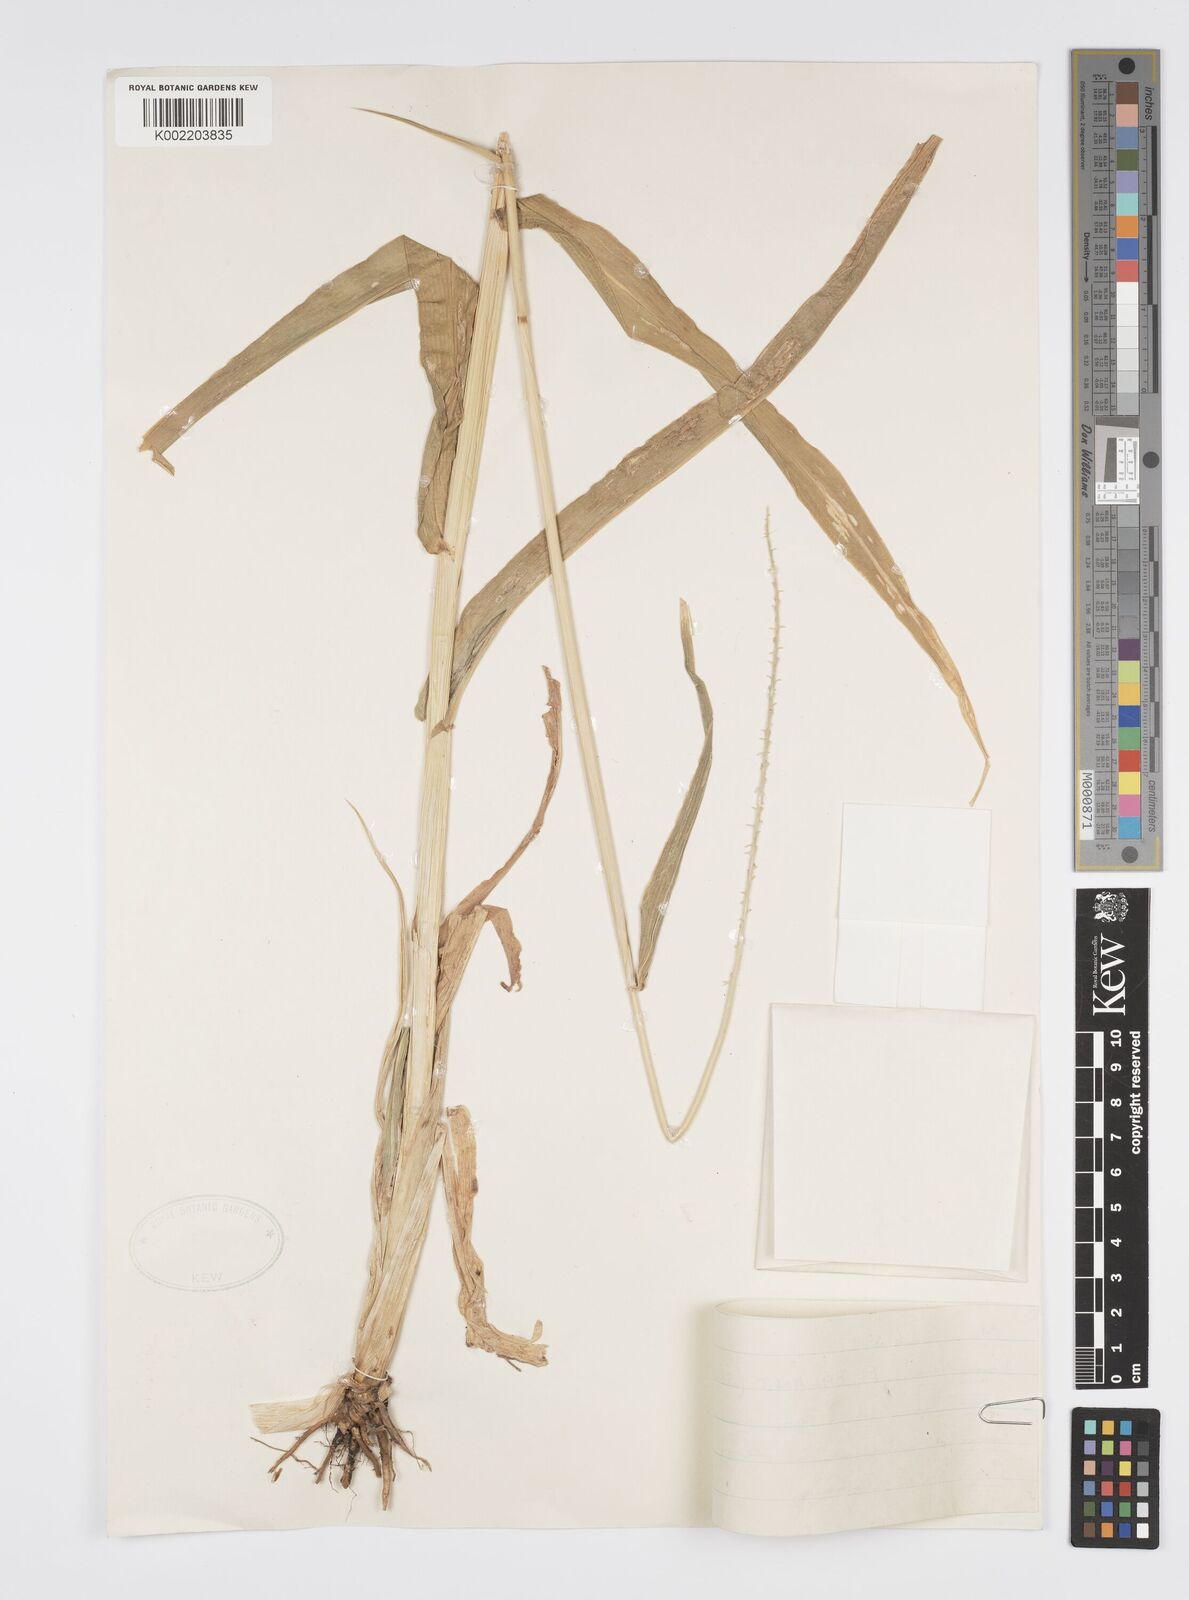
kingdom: Plantae
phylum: Tracheophyta
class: Liliopsida
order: Poales
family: Poaceae
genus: Cenchrus
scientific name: Cenchrus Pennisetum spec
